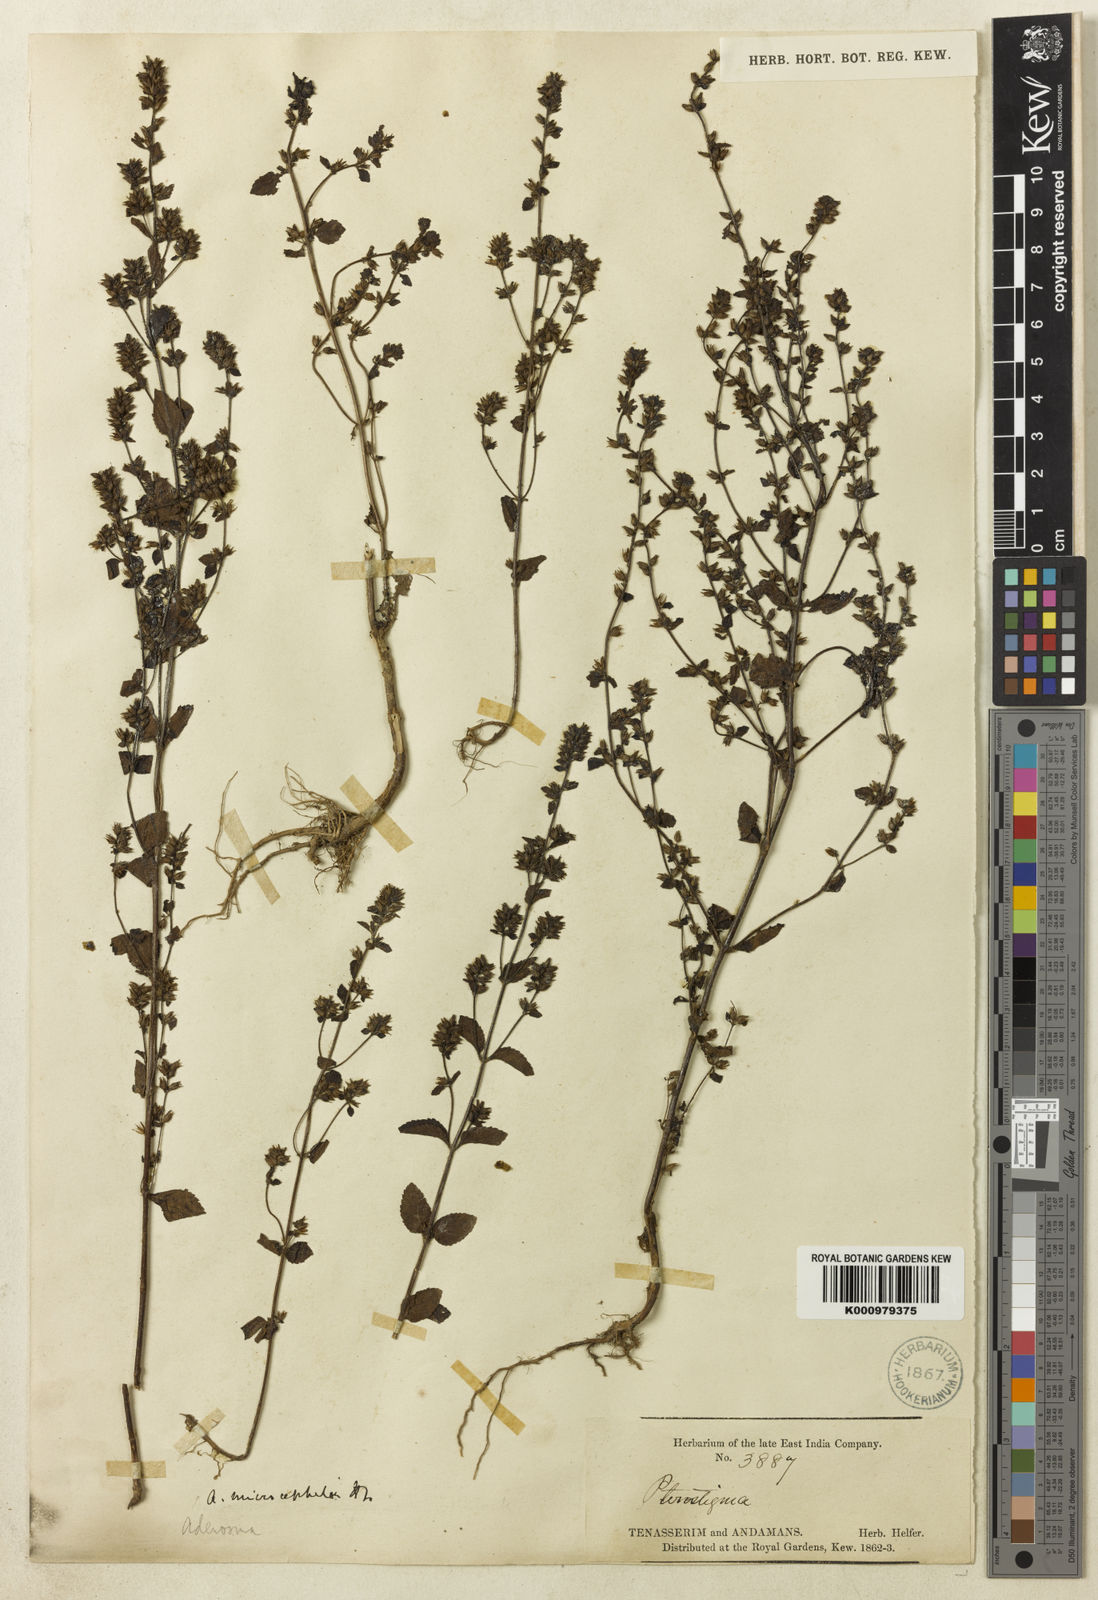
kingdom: Plantae
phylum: Tracheophyta
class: Magnoliopsida
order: Lamiales
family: Plantaginaceae
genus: Adenosma
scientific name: Adenosma microcephala
